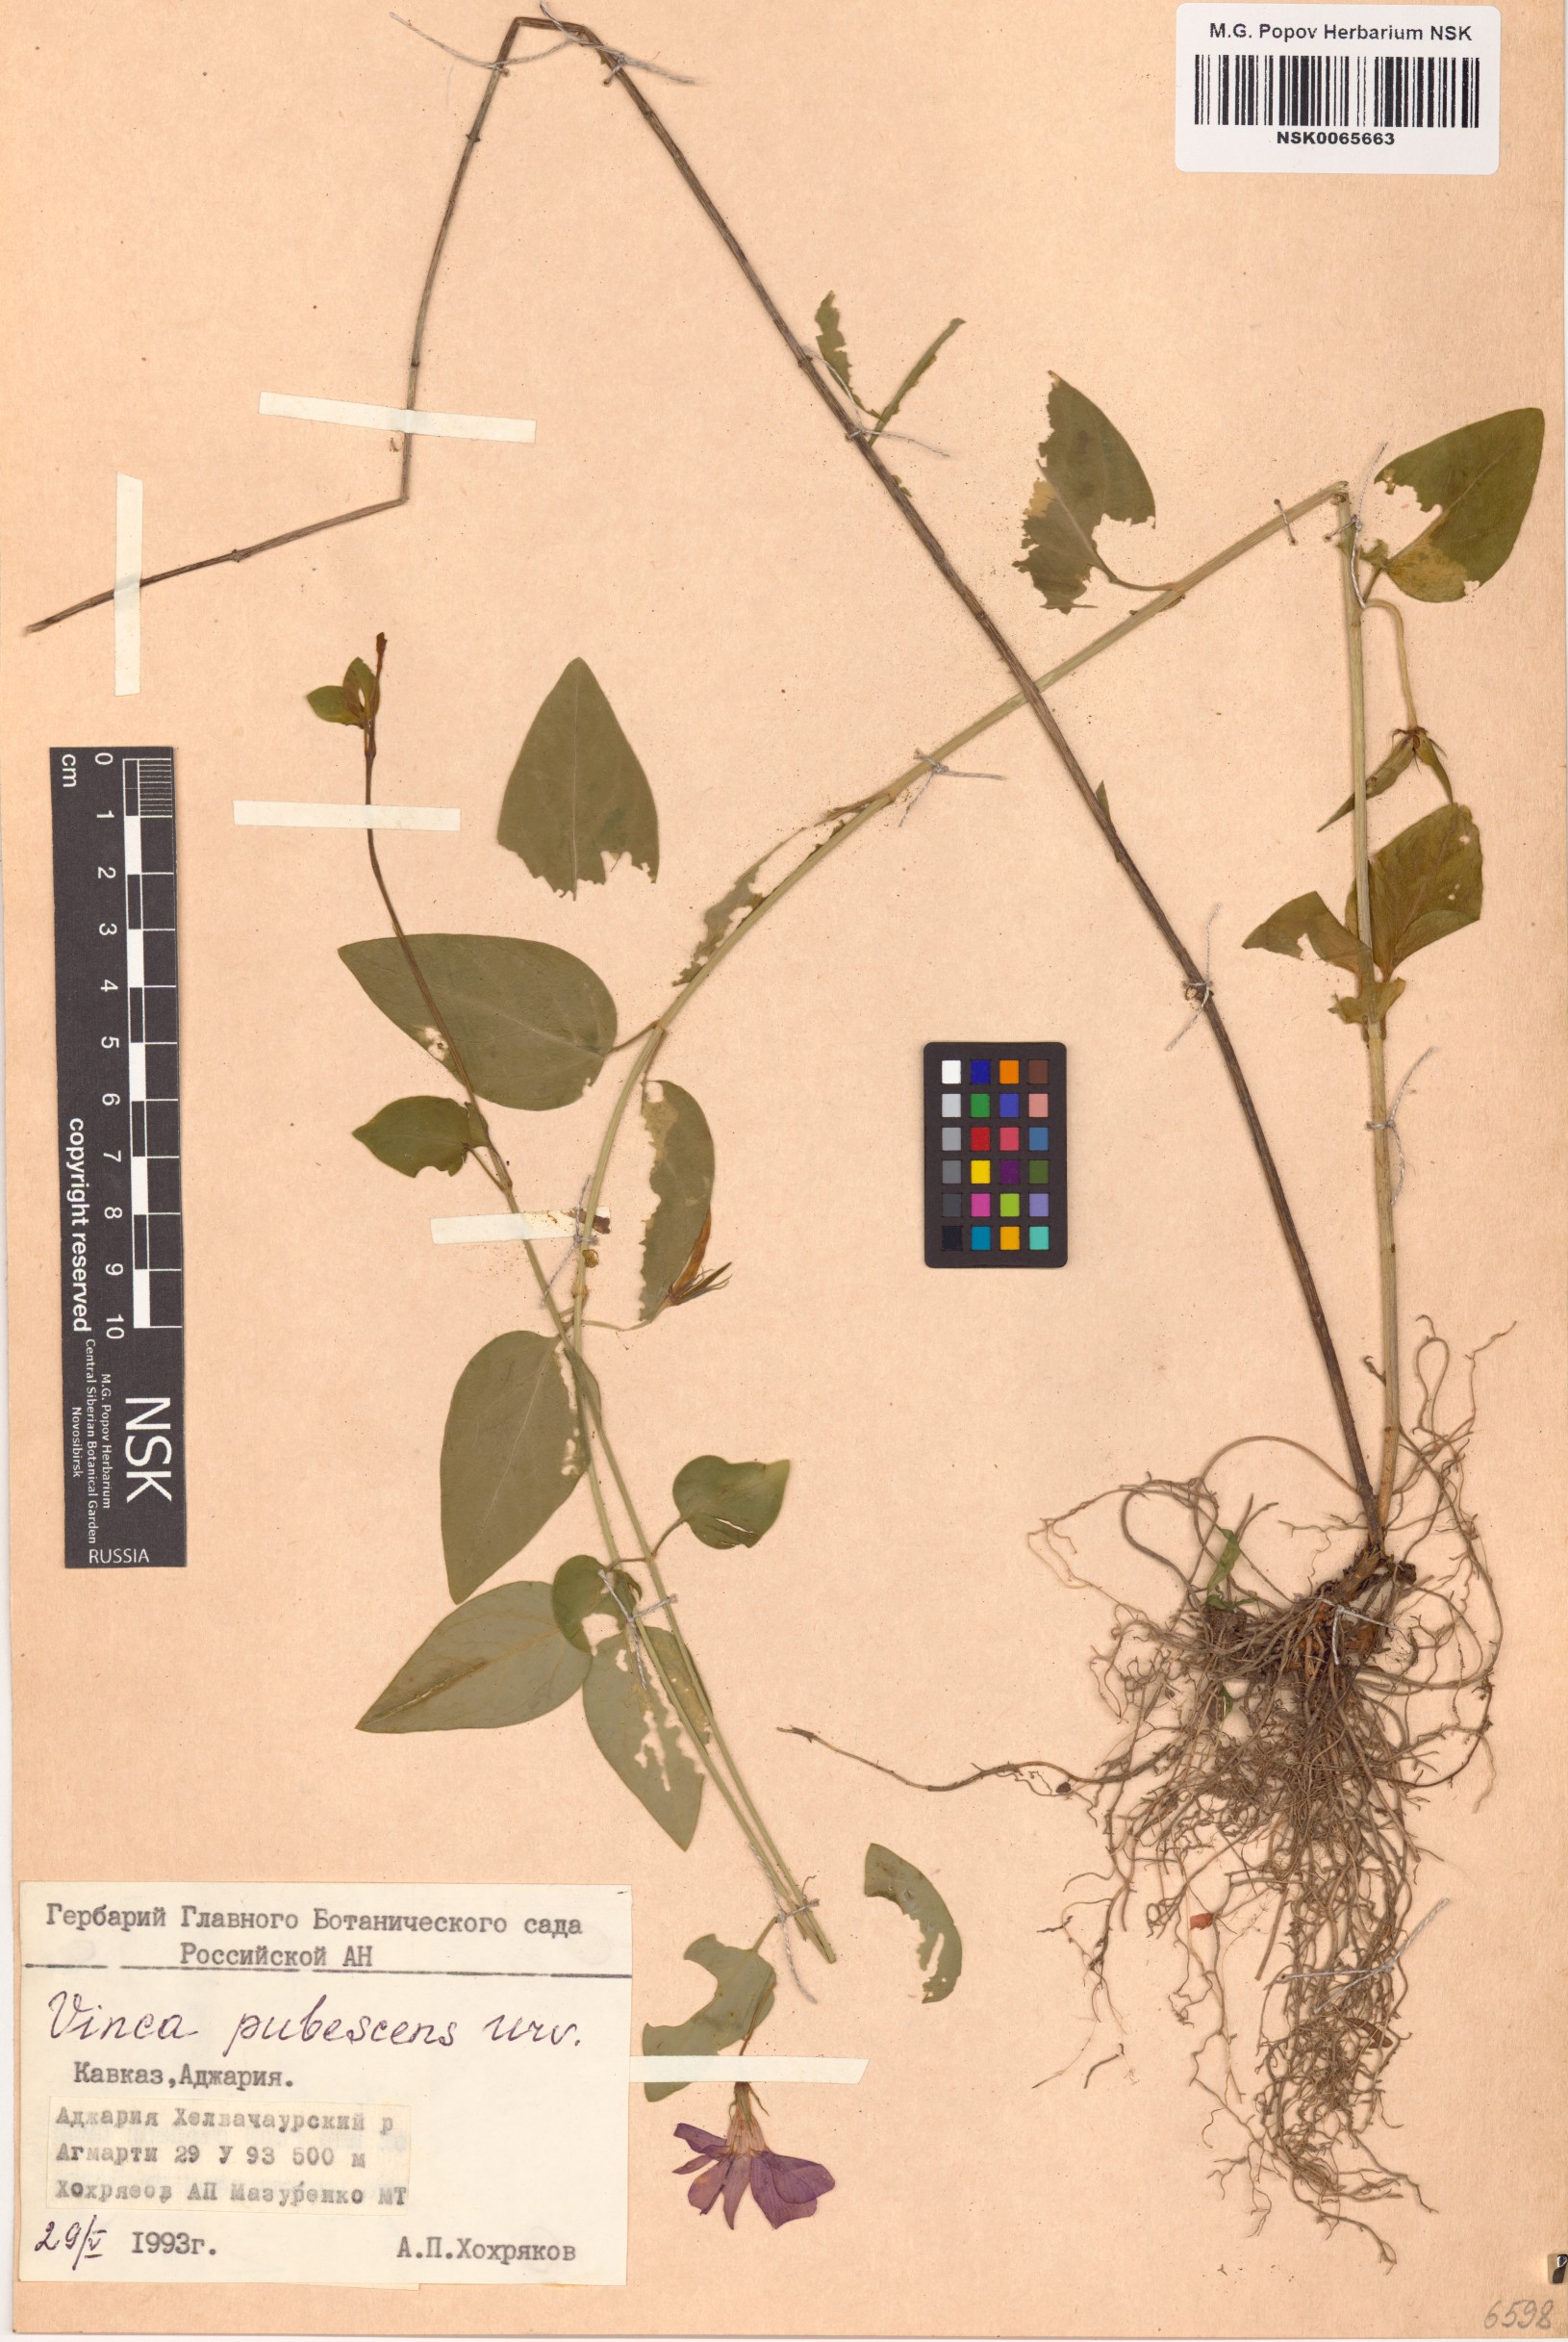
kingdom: Plantae
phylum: Tracheophyta
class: Magnoliopsida
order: Gentianales
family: Apocynaceae
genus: Vinca
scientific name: Vinca major
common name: Greater periwinkle
